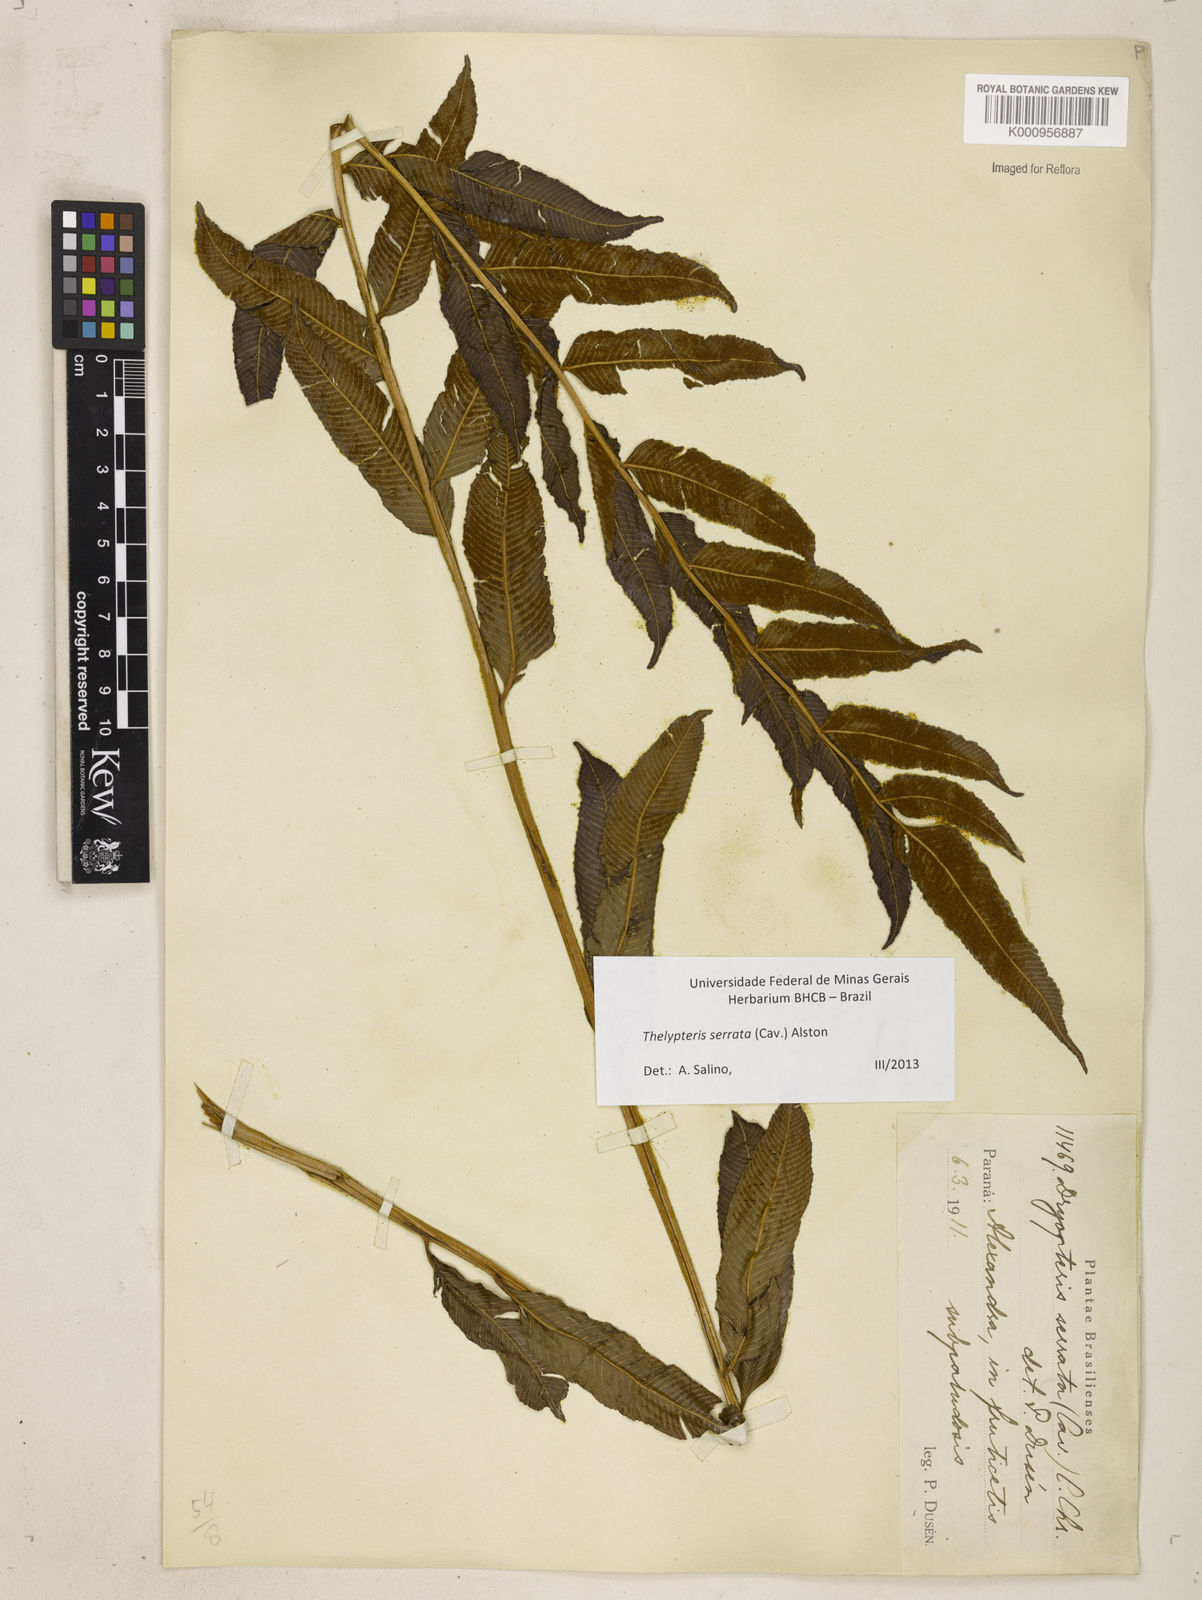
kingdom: Plantae
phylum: Tracheophyta
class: Polypodiopsida
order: Polypodiales
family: Thelypteridaceae
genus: Meniscium
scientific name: Meniscium serratum
